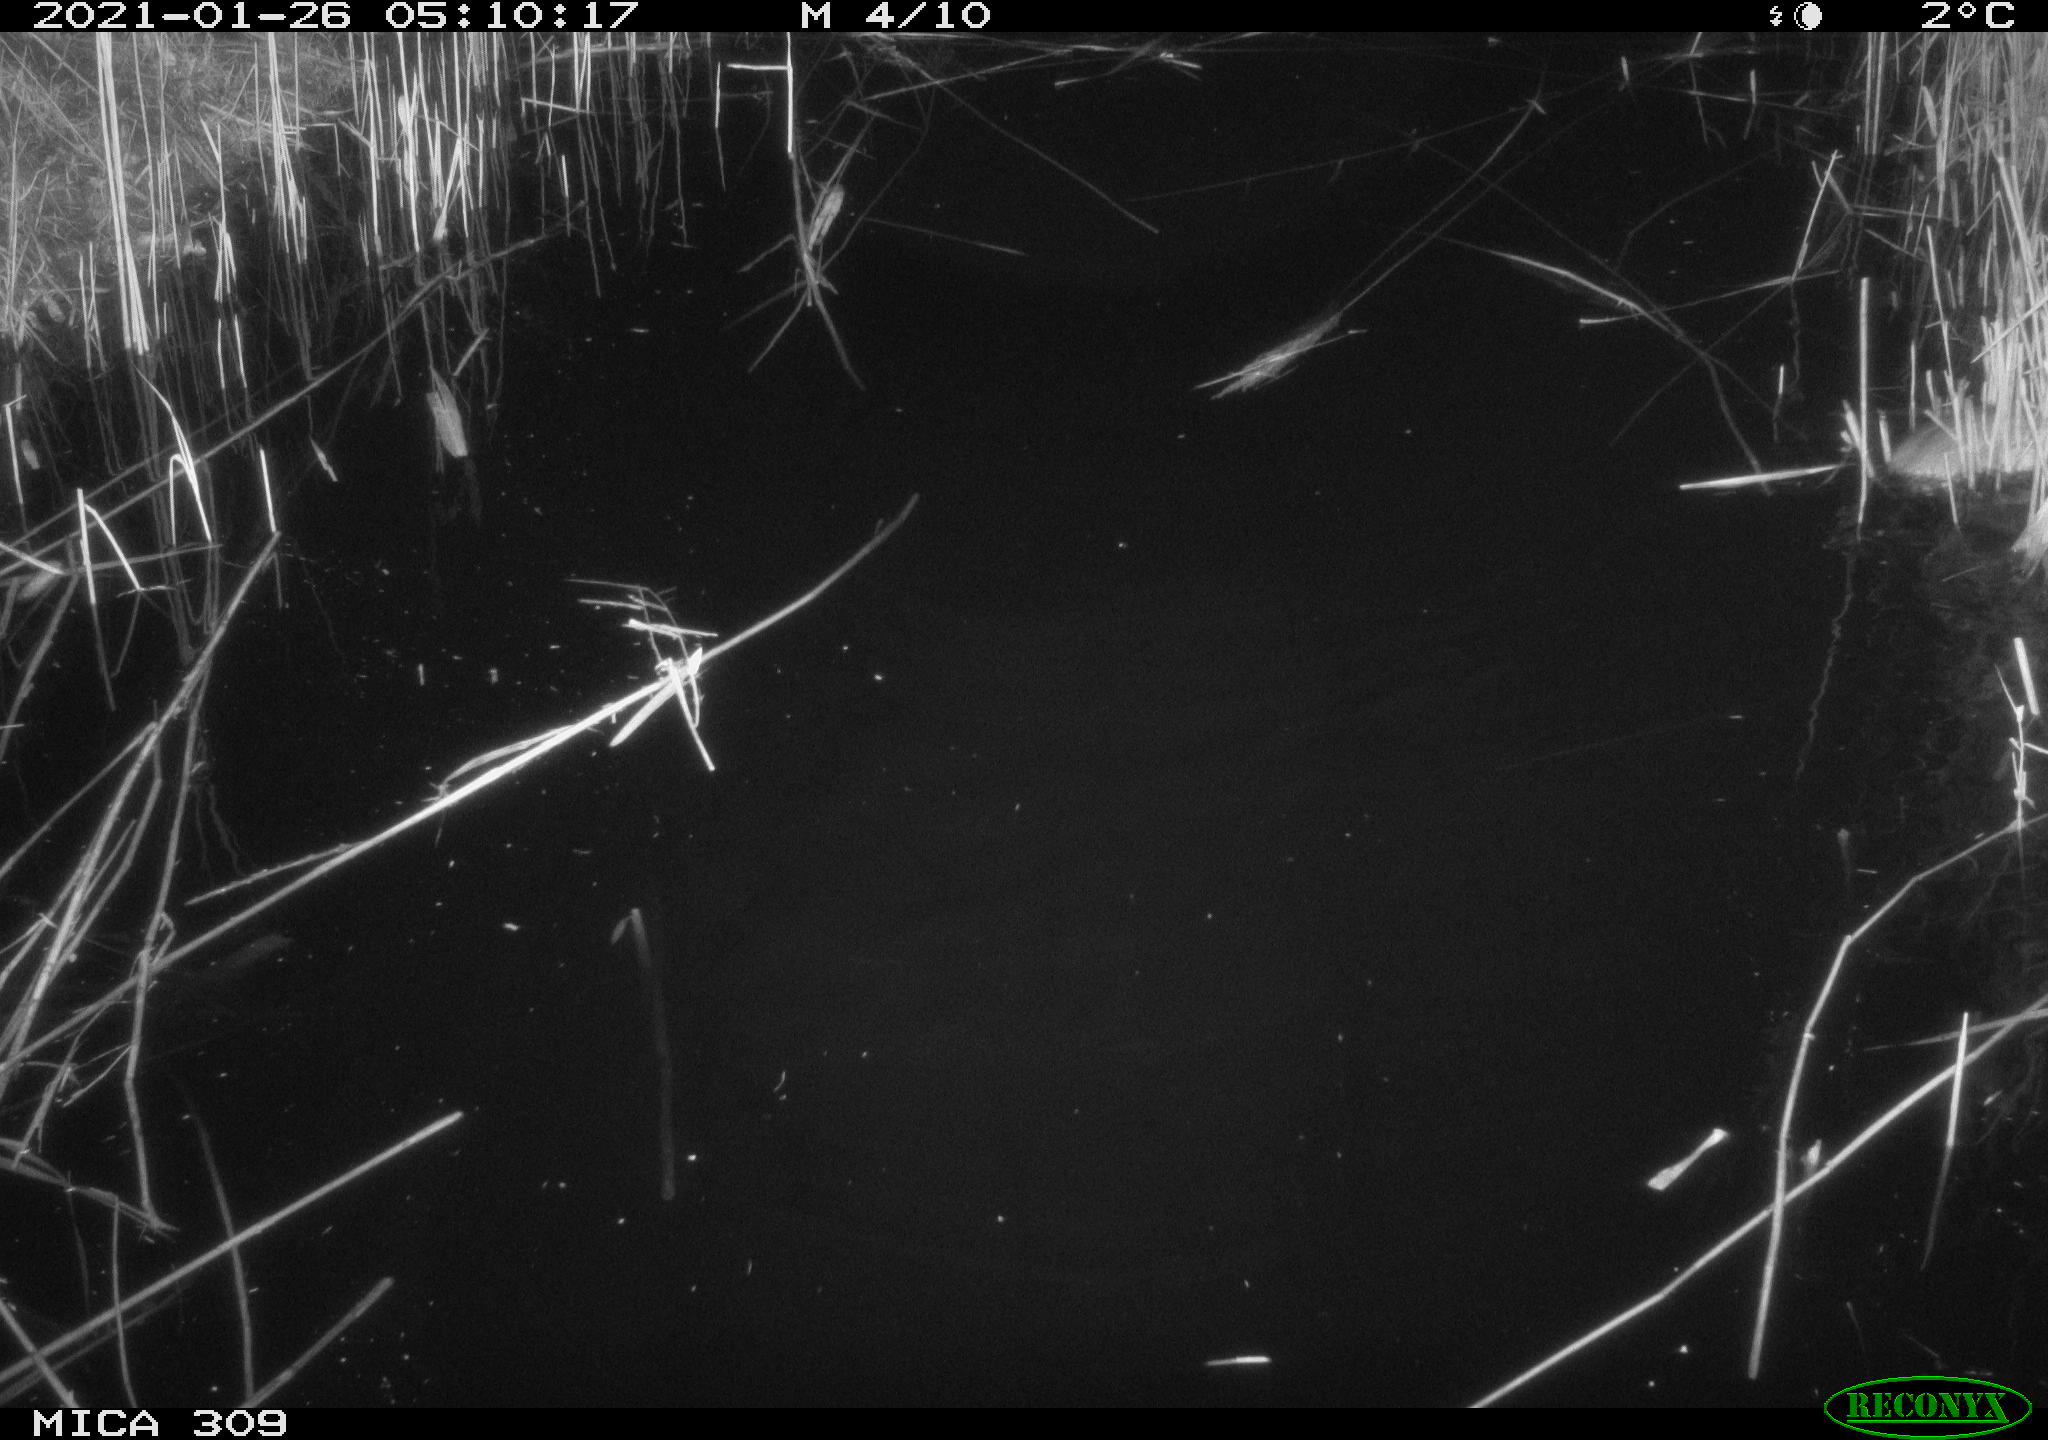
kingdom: Animalia
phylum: Chordata
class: Mammalia
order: Rodentia
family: Muridae
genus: Rattus
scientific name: Rattus norvegicus
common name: Brown rat
